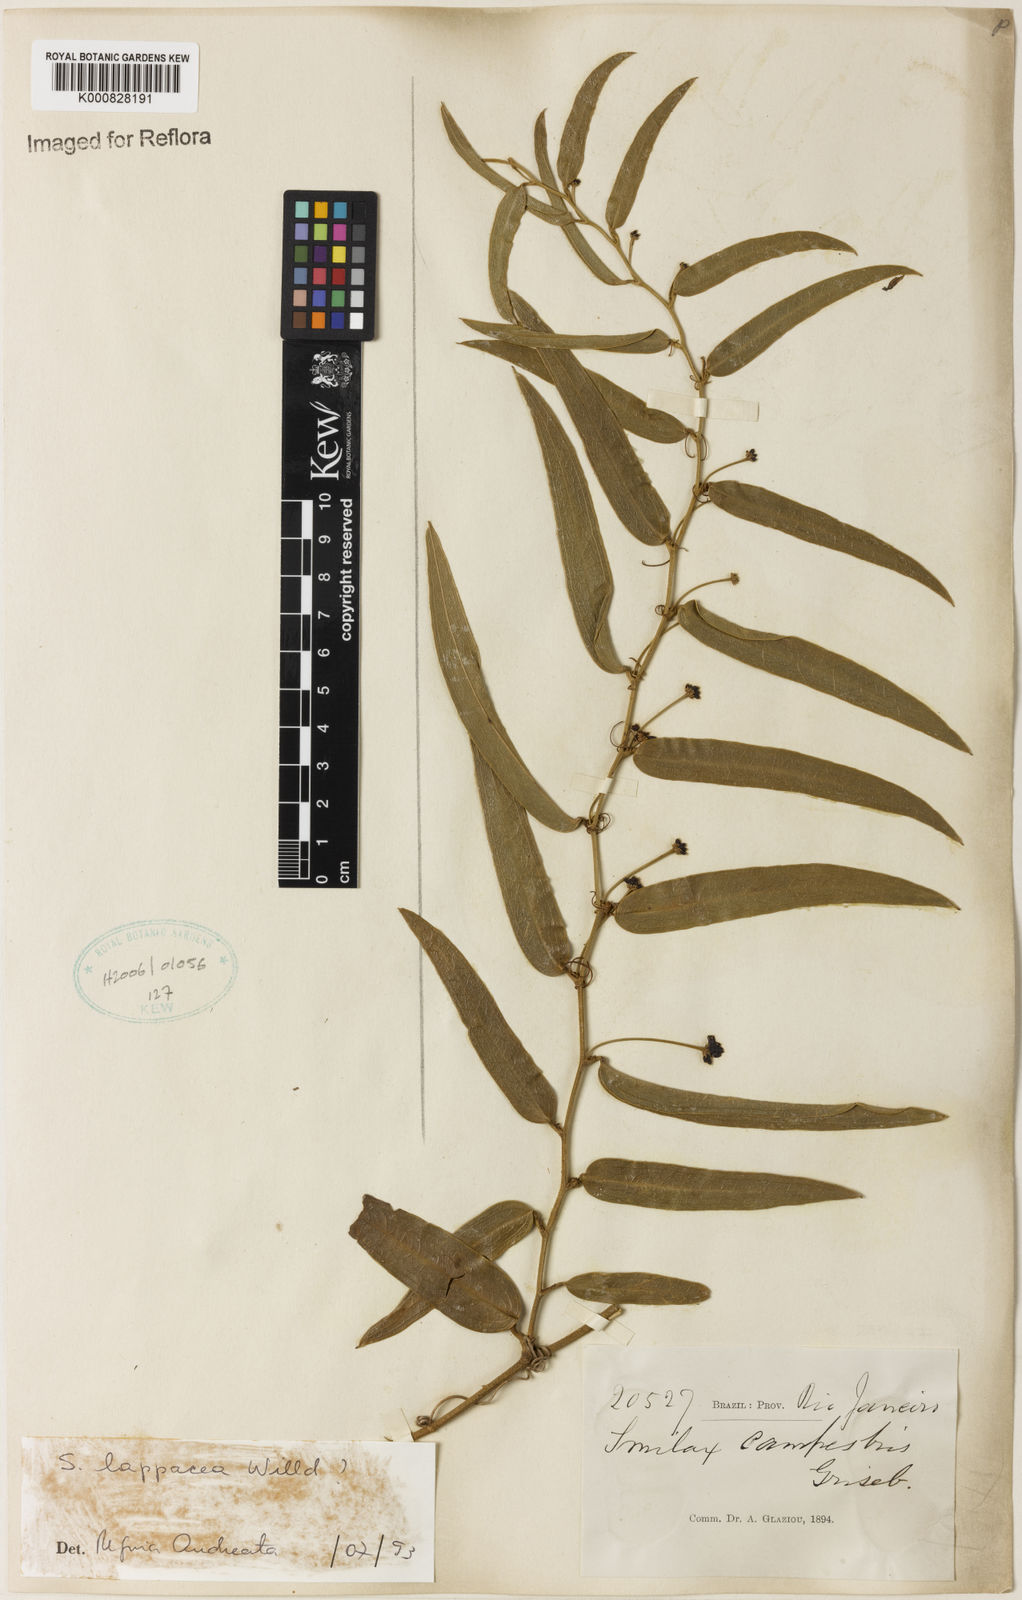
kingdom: Plantae
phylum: Tracheophyta
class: Liliopsida
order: Liliales
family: Smilacaceae
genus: Smilax
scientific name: Smilax lappacea
